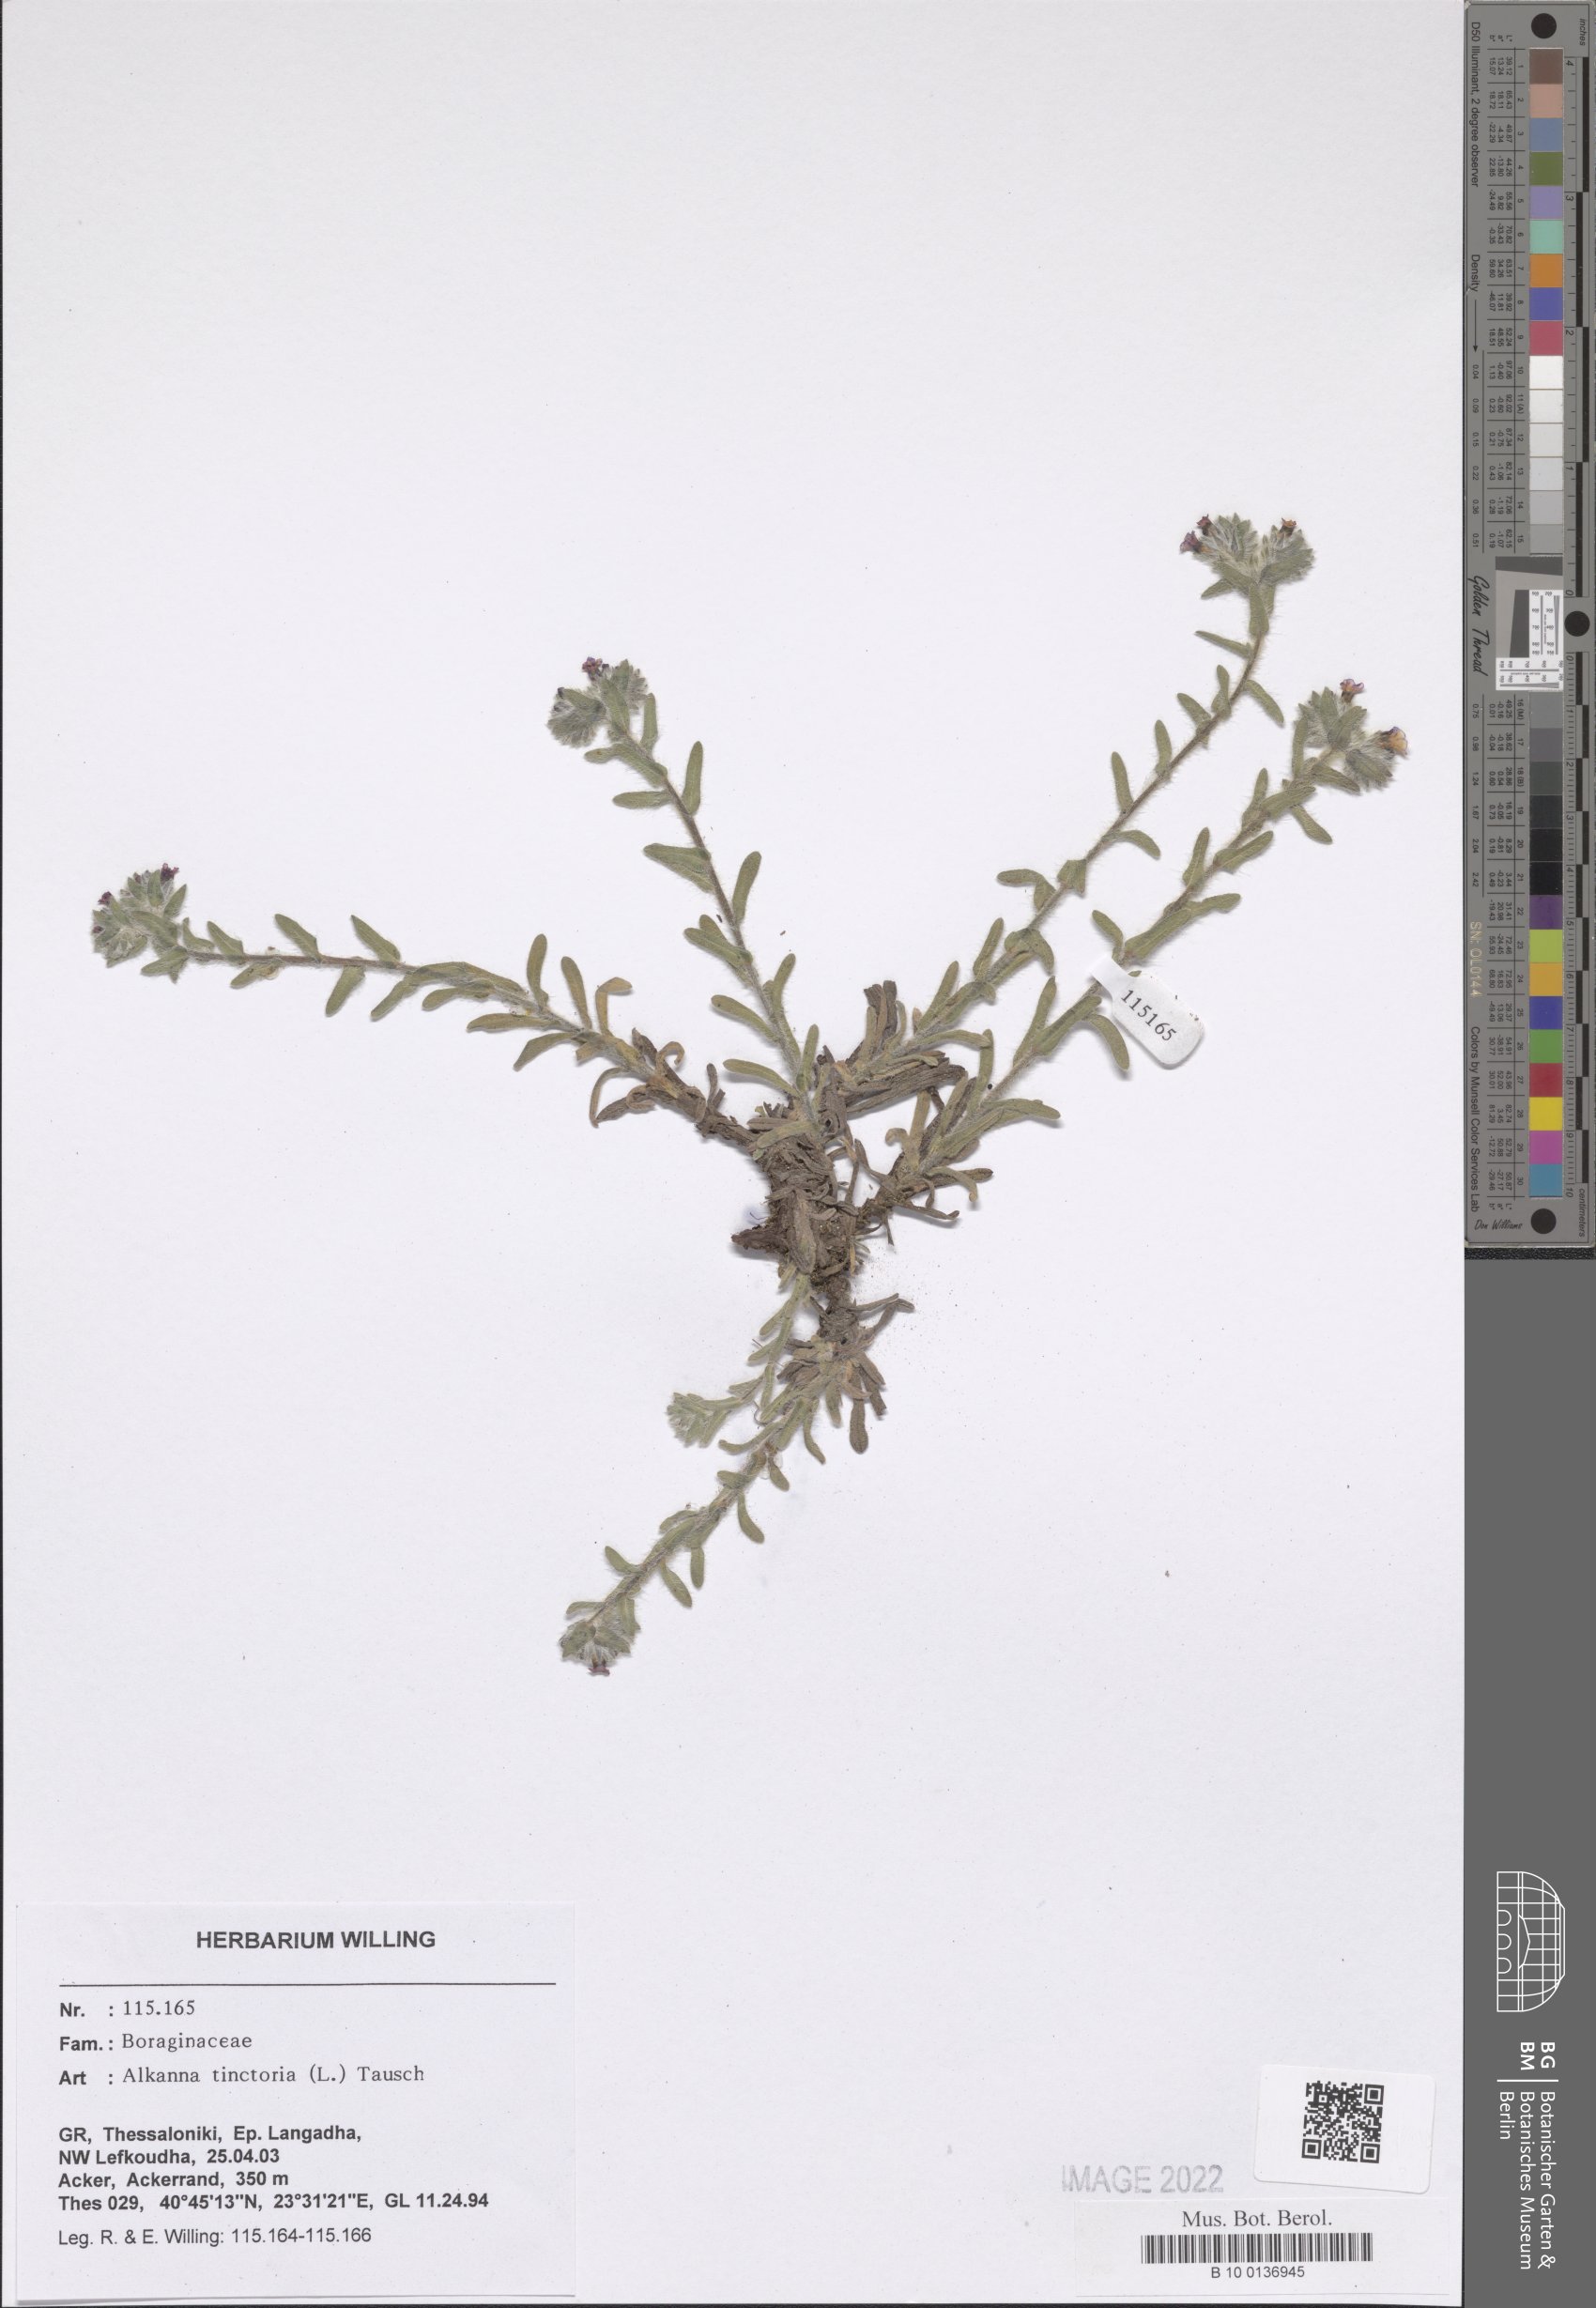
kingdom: Plantae
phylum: Tracheophyta
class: Magnoliopsida
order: Boraginales
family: Boraginaceae
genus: Alkanna
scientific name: Alkanna tinctoria
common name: Dyer's-alkanet
